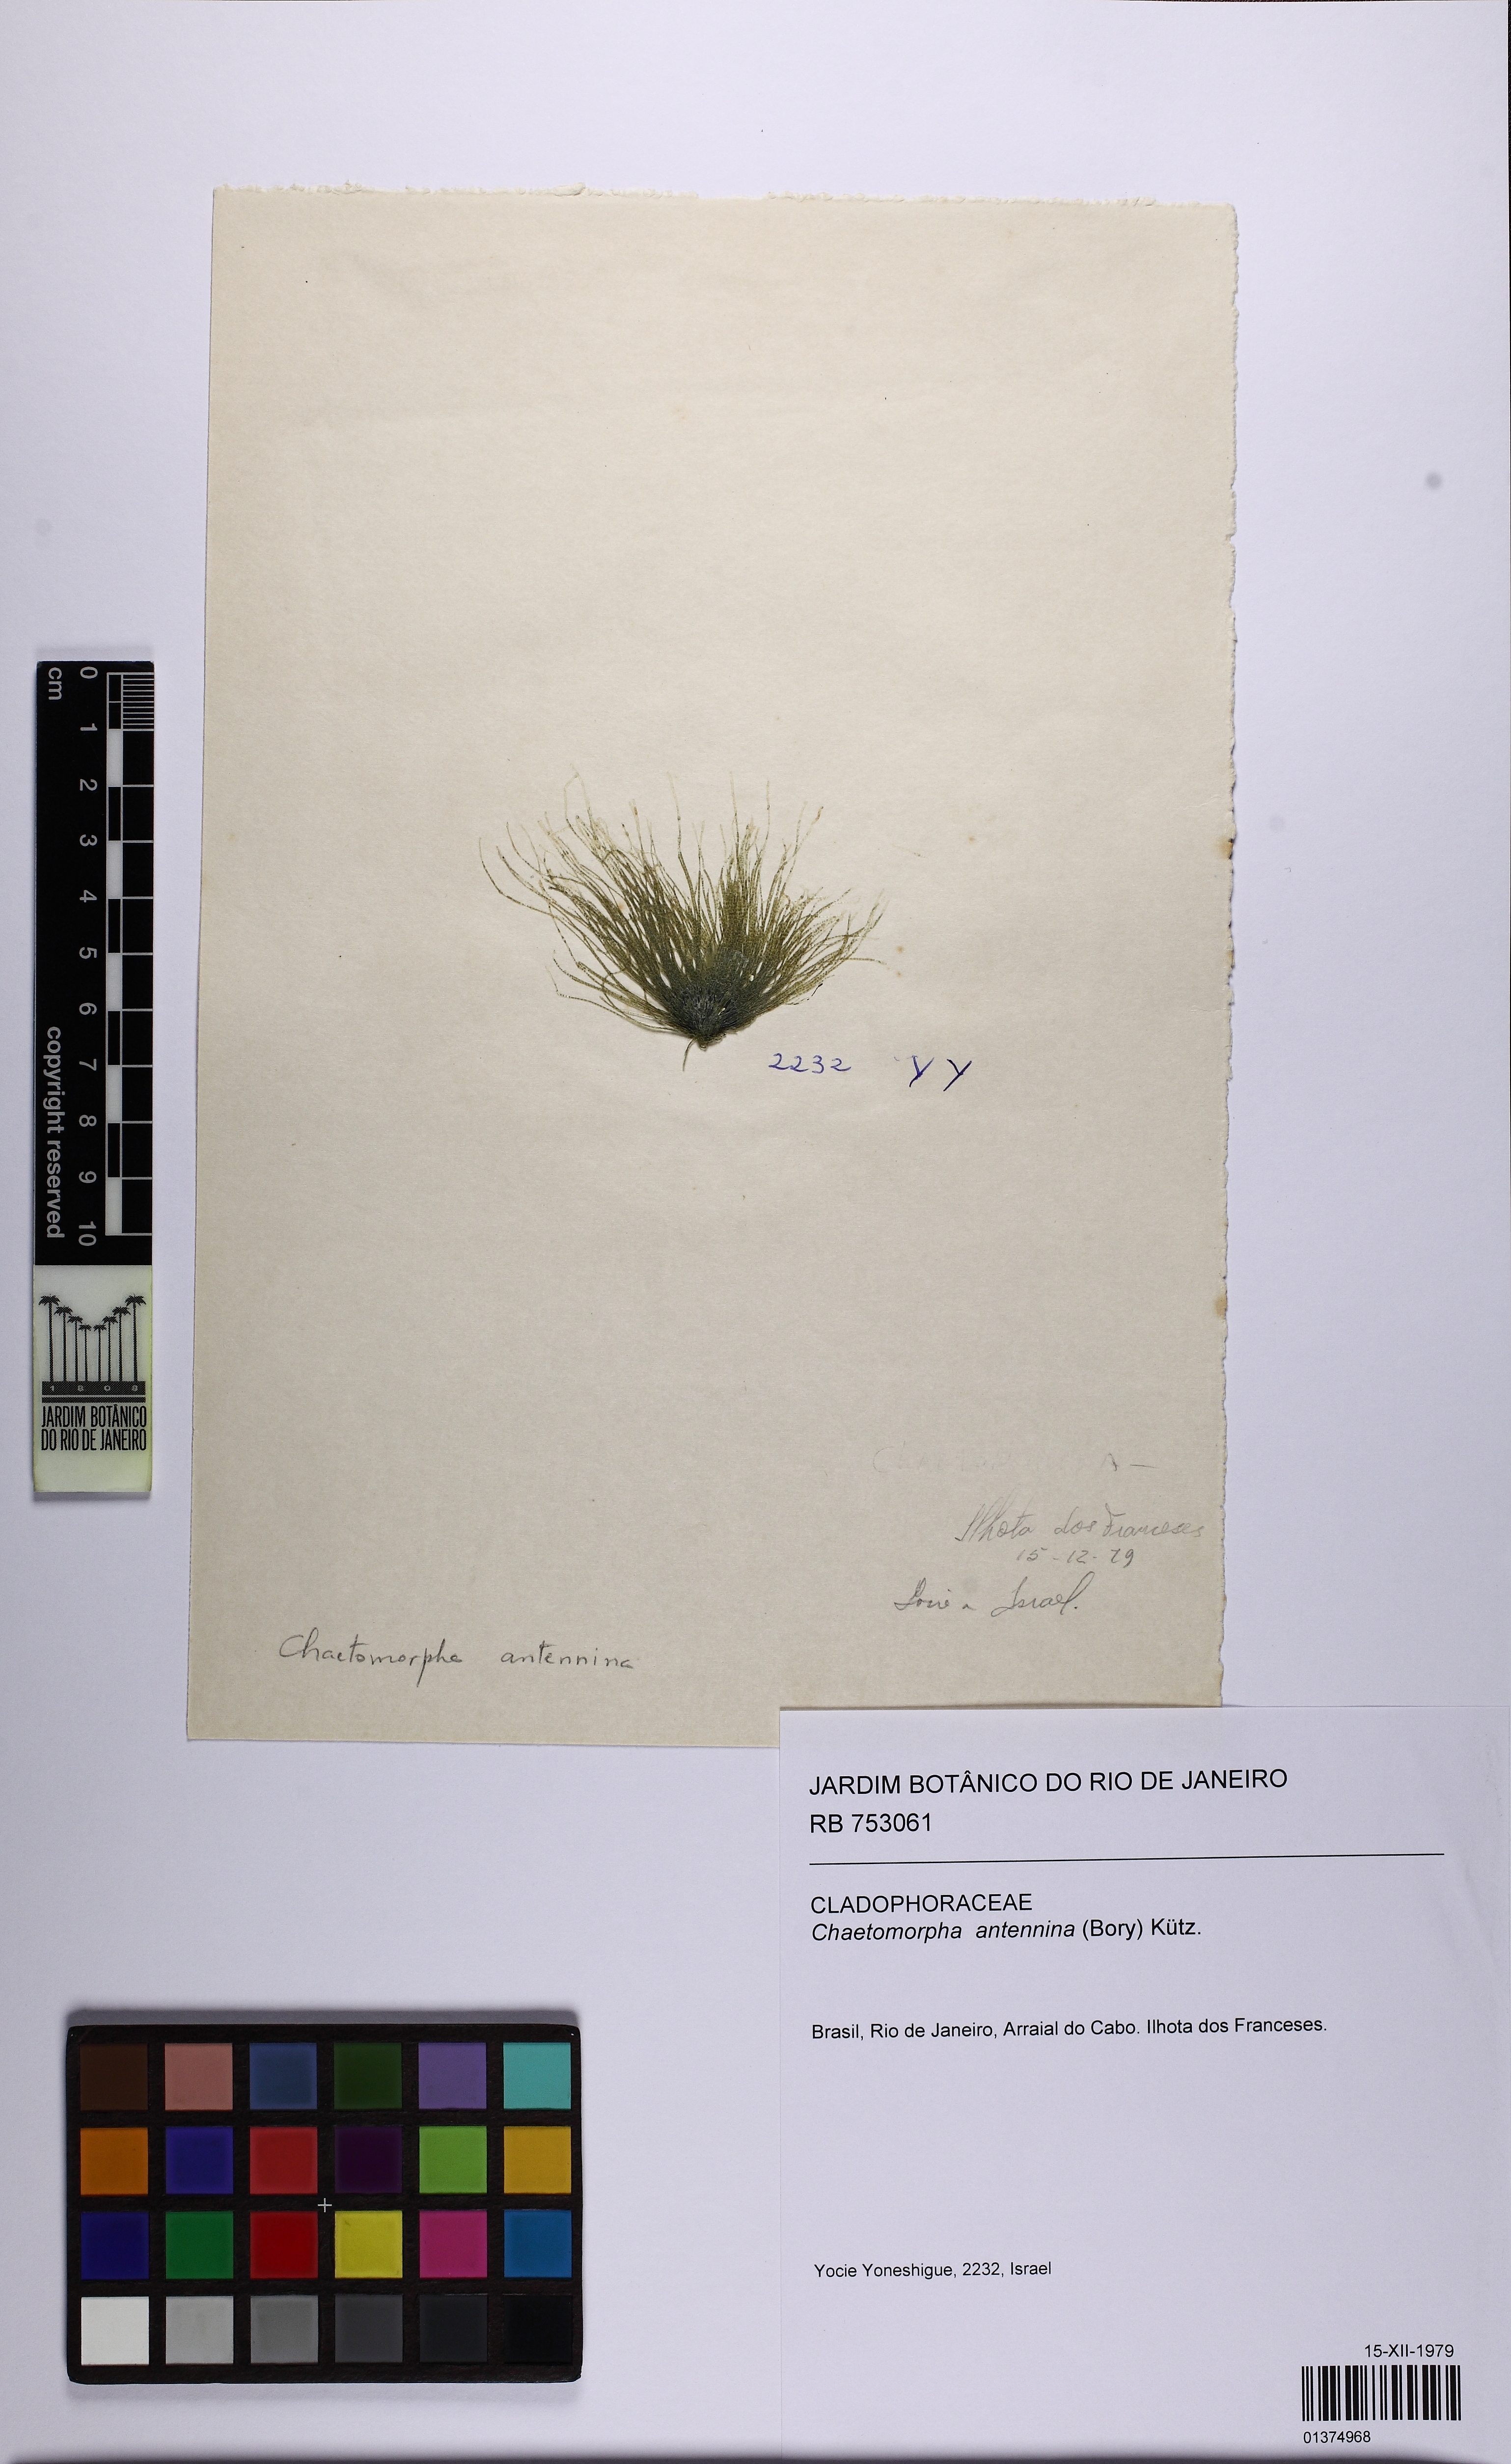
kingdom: Plantae
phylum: Chlorophyta
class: Ulvophyceae
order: Cladophorales
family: Cladophoraceae
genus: Chaetomorpha
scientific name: Chaetomorpha antennina
